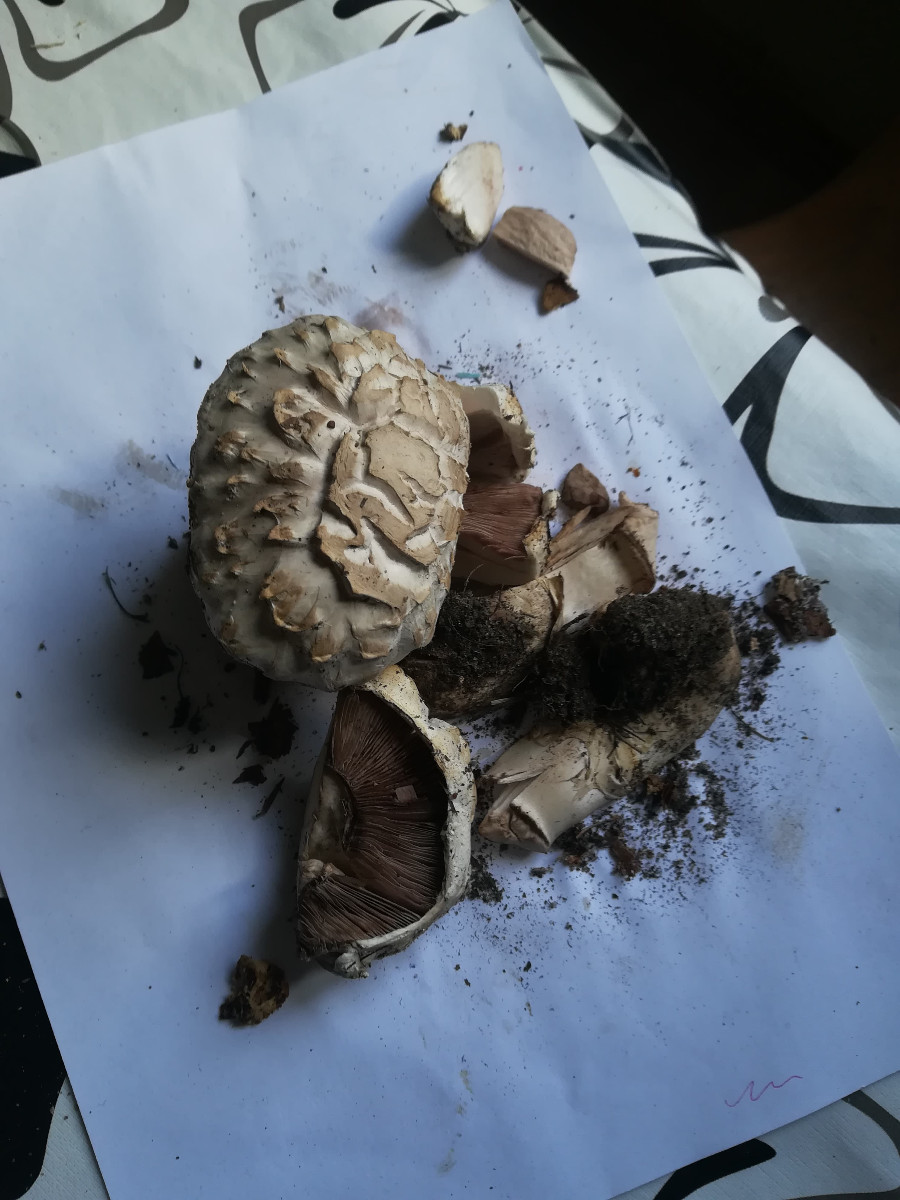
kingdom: Fungi
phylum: Basidiomycota
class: Agaricomycetes
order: Agaricales
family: Agaricaceae
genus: Agaricus
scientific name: Agaricus bernardii
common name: strandengs-champignon
